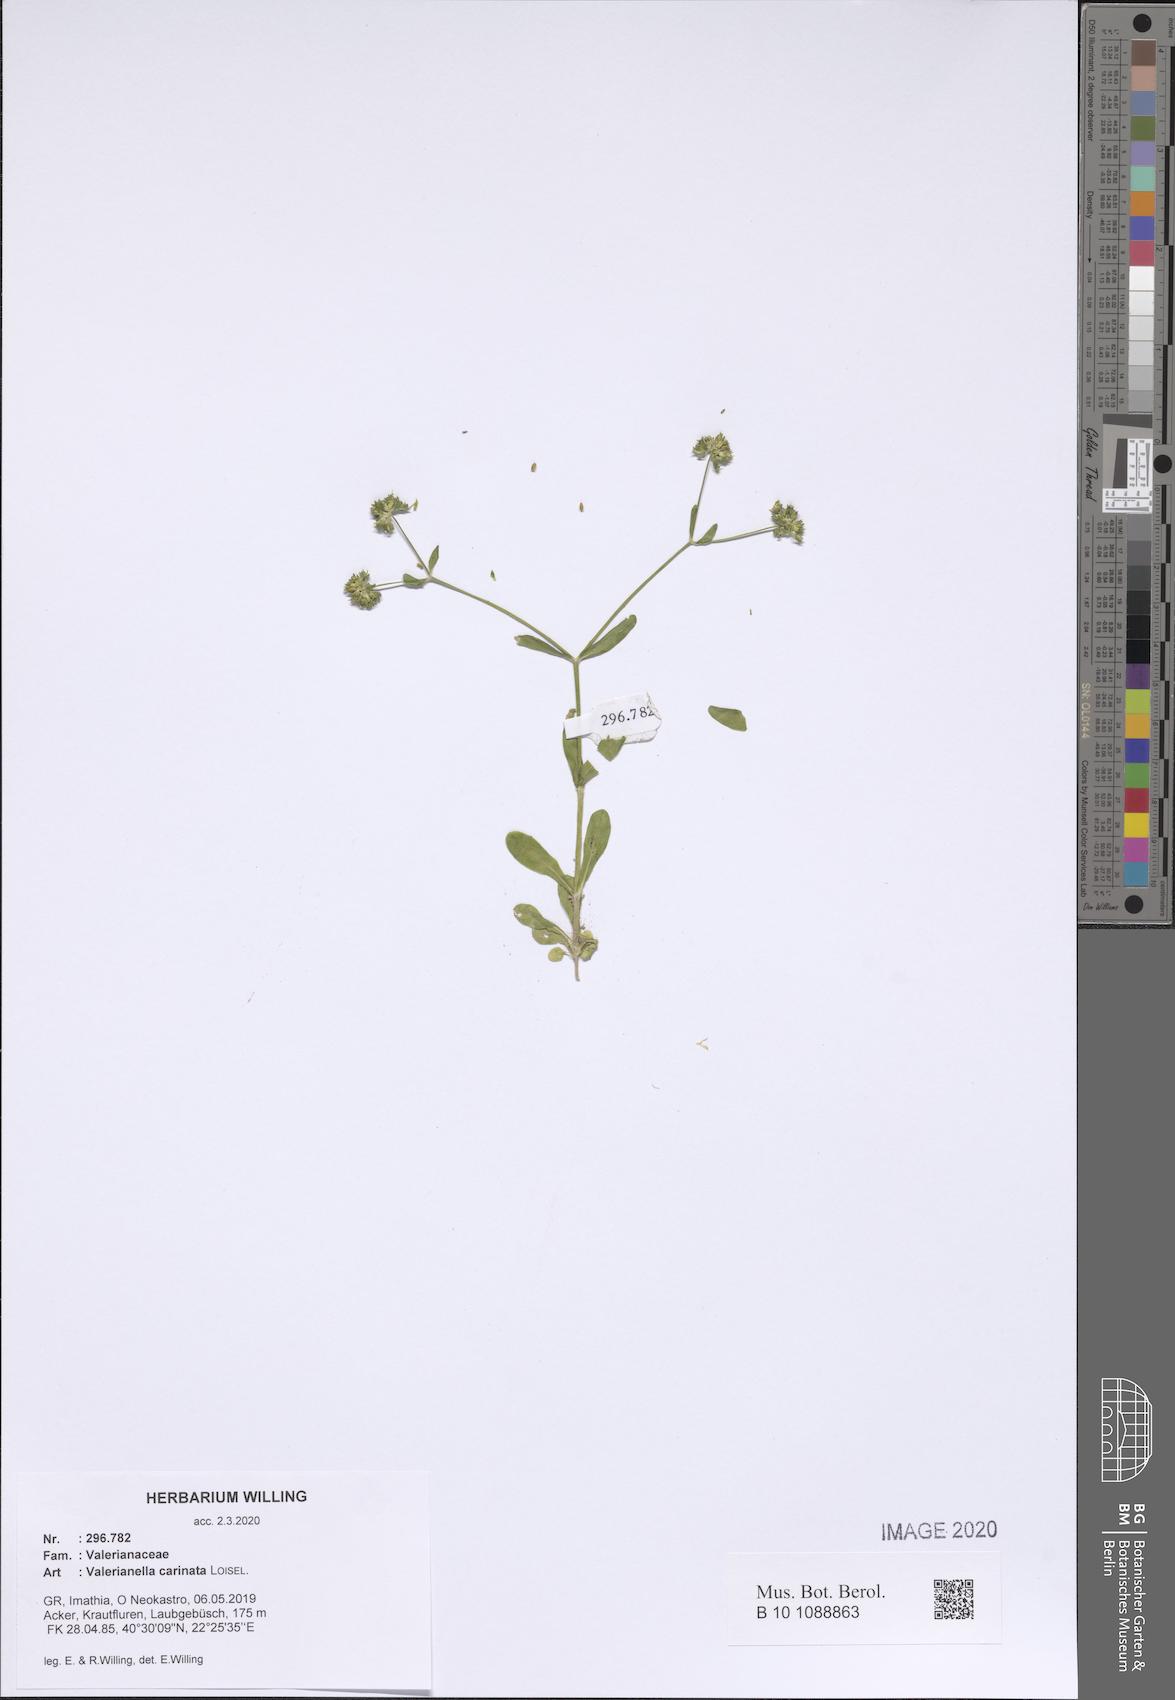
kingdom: Plantae
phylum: Tracheophyta
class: Magnoliopsida
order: Dipsacales
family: Caprifoliaceae
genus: Valerianella
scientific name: Valerianella carinata
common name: Keeled-fruited cornsalad
